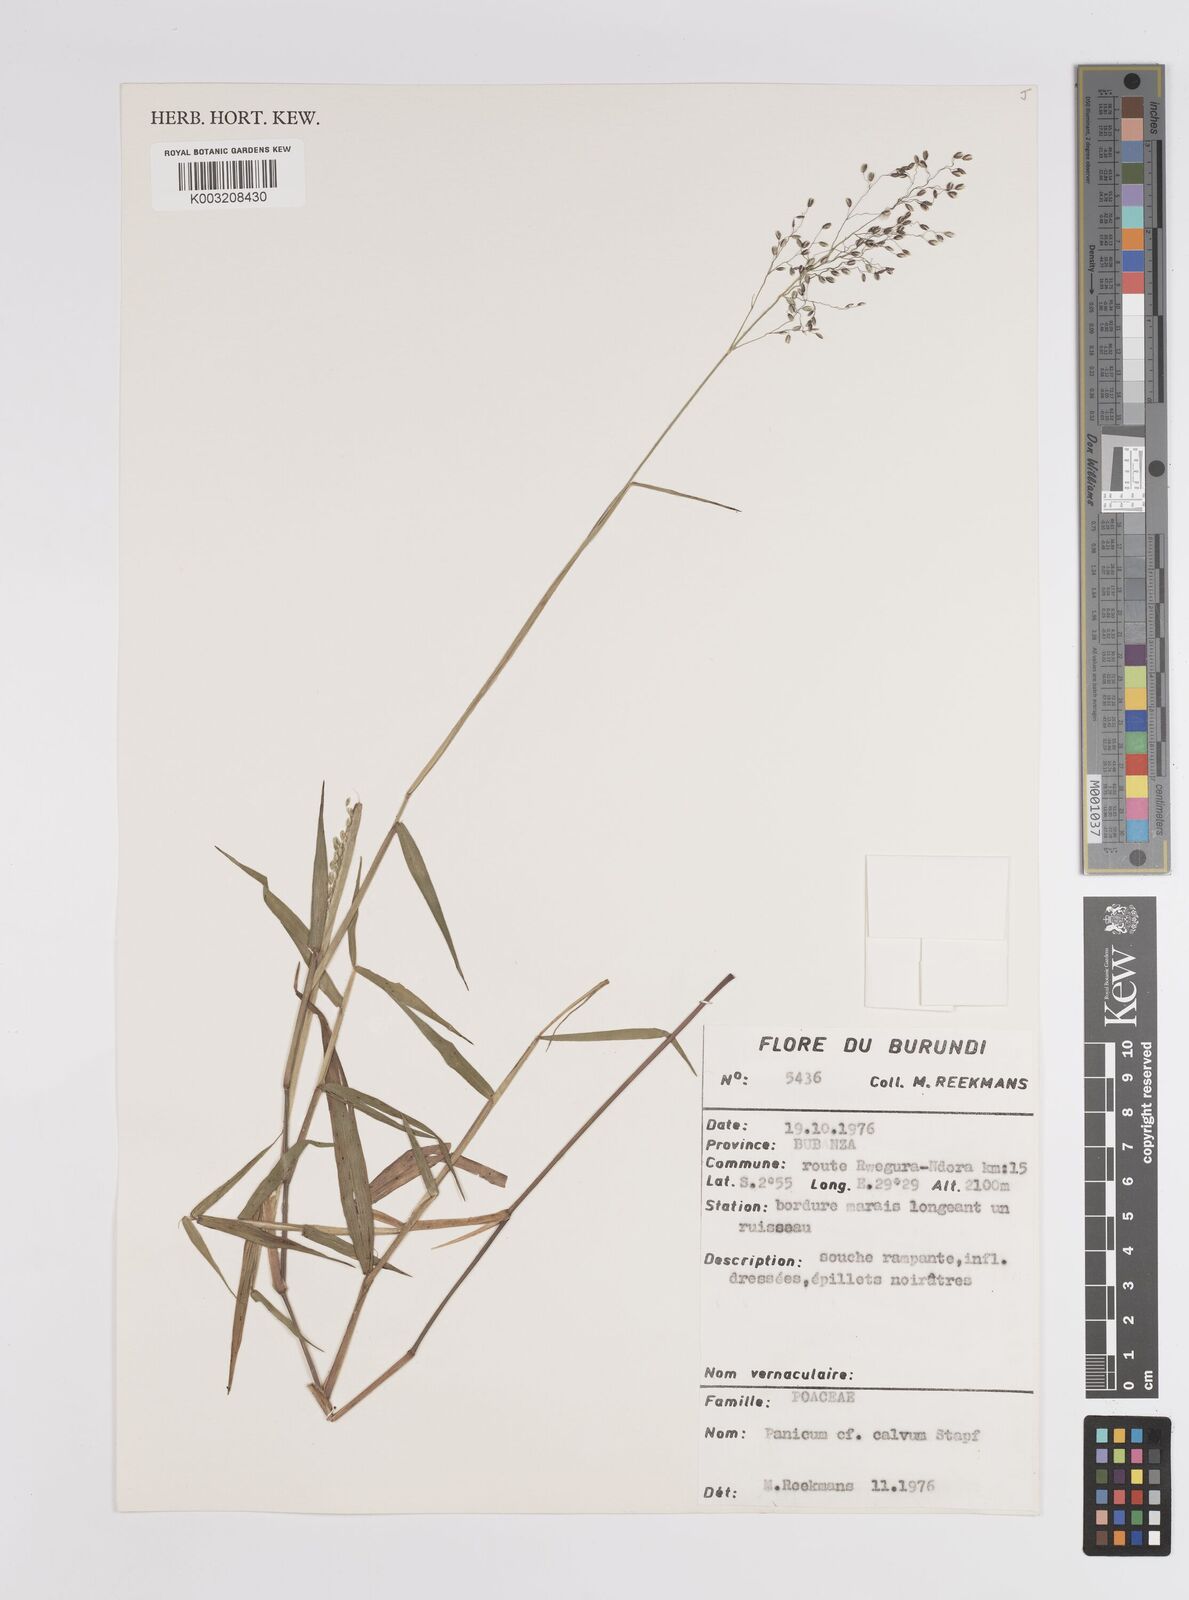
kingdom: Plantae
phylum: Tracheophyta
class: Liliopsida
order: Poales
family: Poaceae
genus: Adenochloa
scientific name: Adenochloa adenophora
